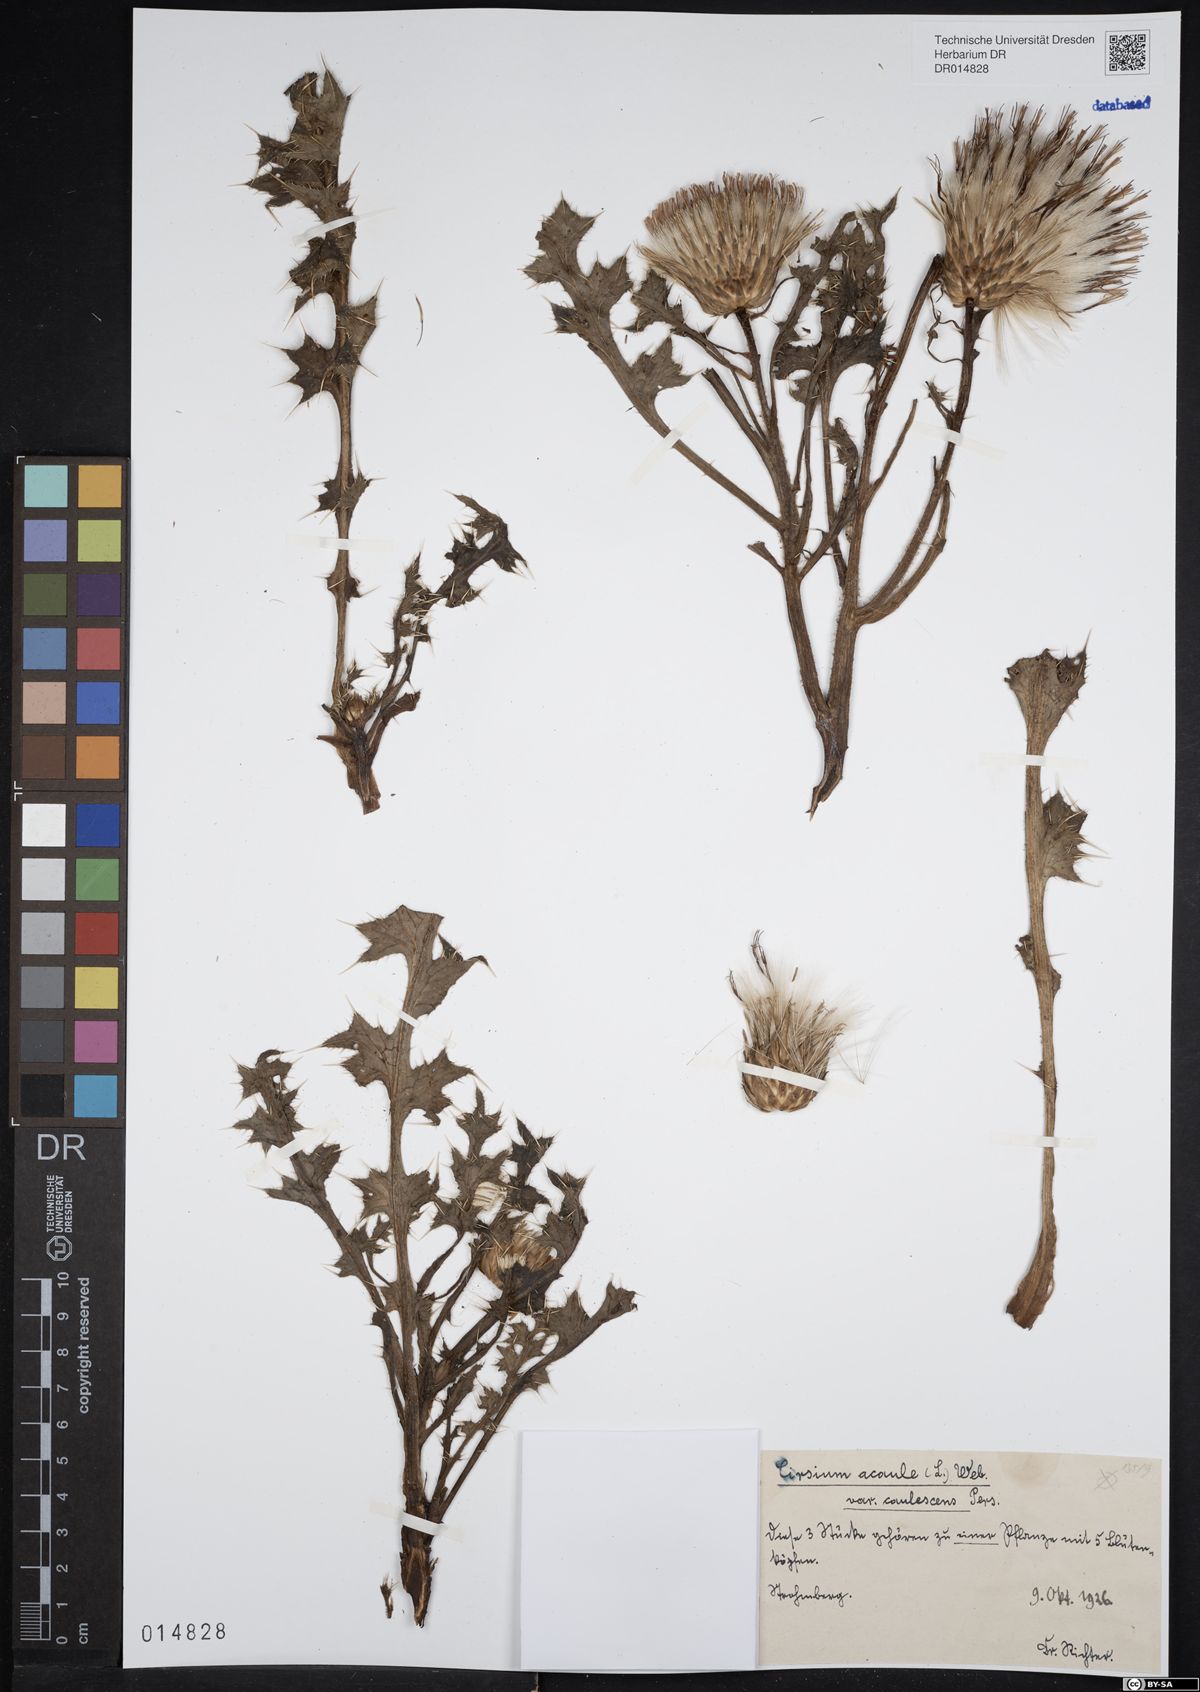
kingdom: Plantae
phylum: Tracheophyta
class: Magnoliopsida
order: Asterales
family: Asteraceae
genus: Cirsium
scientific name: Cirsium acaulon
